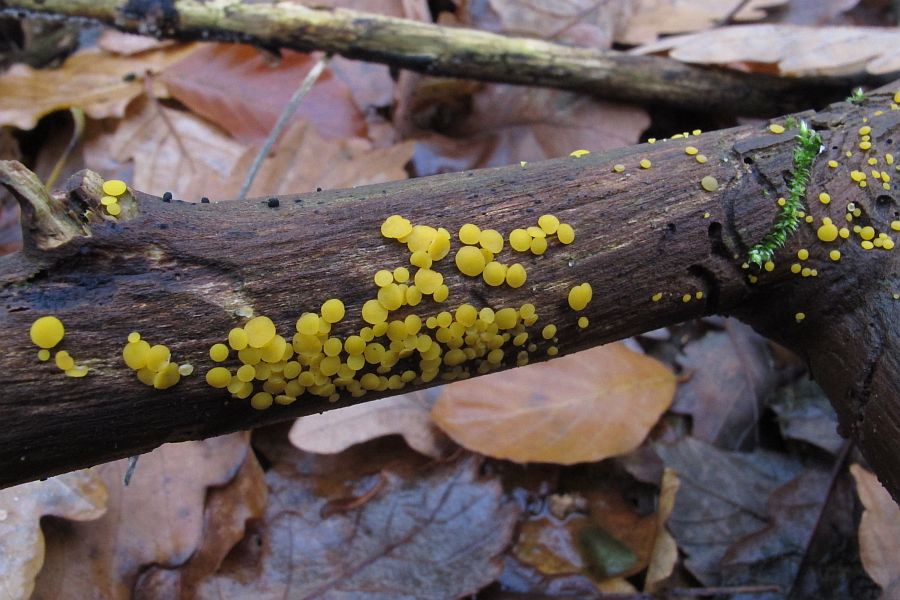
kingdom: Fungi
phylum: Ascomycota
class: Leotiomycetes
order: Helotiales
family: Pezizellaceae
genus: Calycina
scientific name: Calycina citrina
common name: almindelig gulskive
